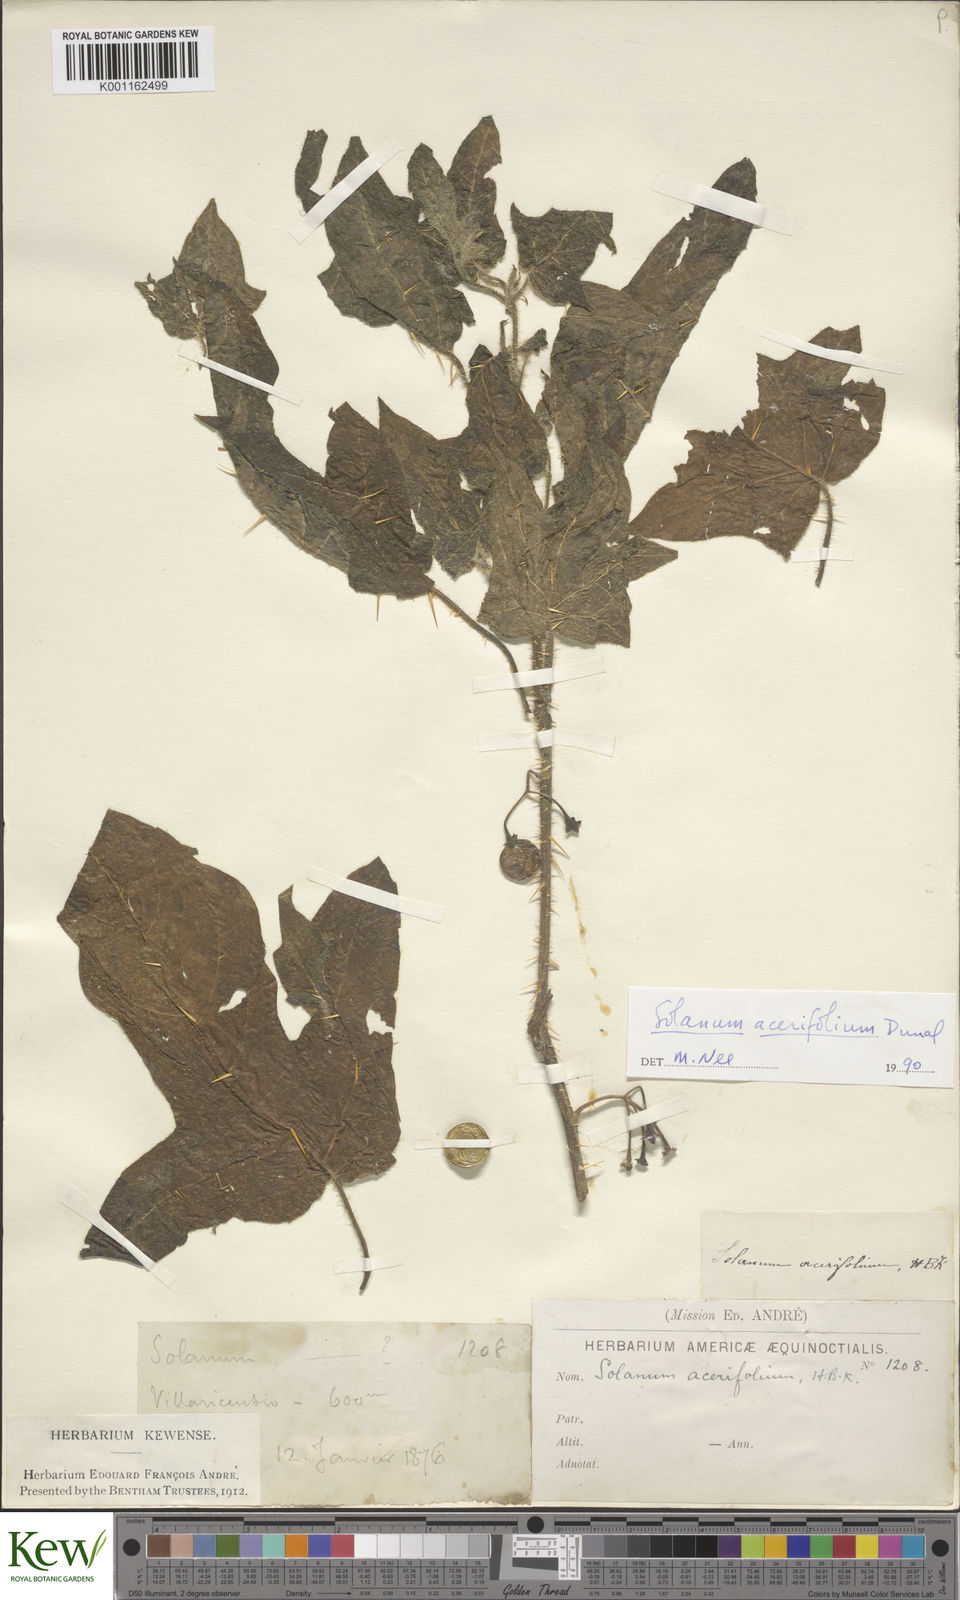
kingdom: Plantae
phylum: Tracheophyta
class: Magnoliopsida
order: Solanales
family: Solanaceae
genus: Solanum
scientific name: Solanum acerifolium
